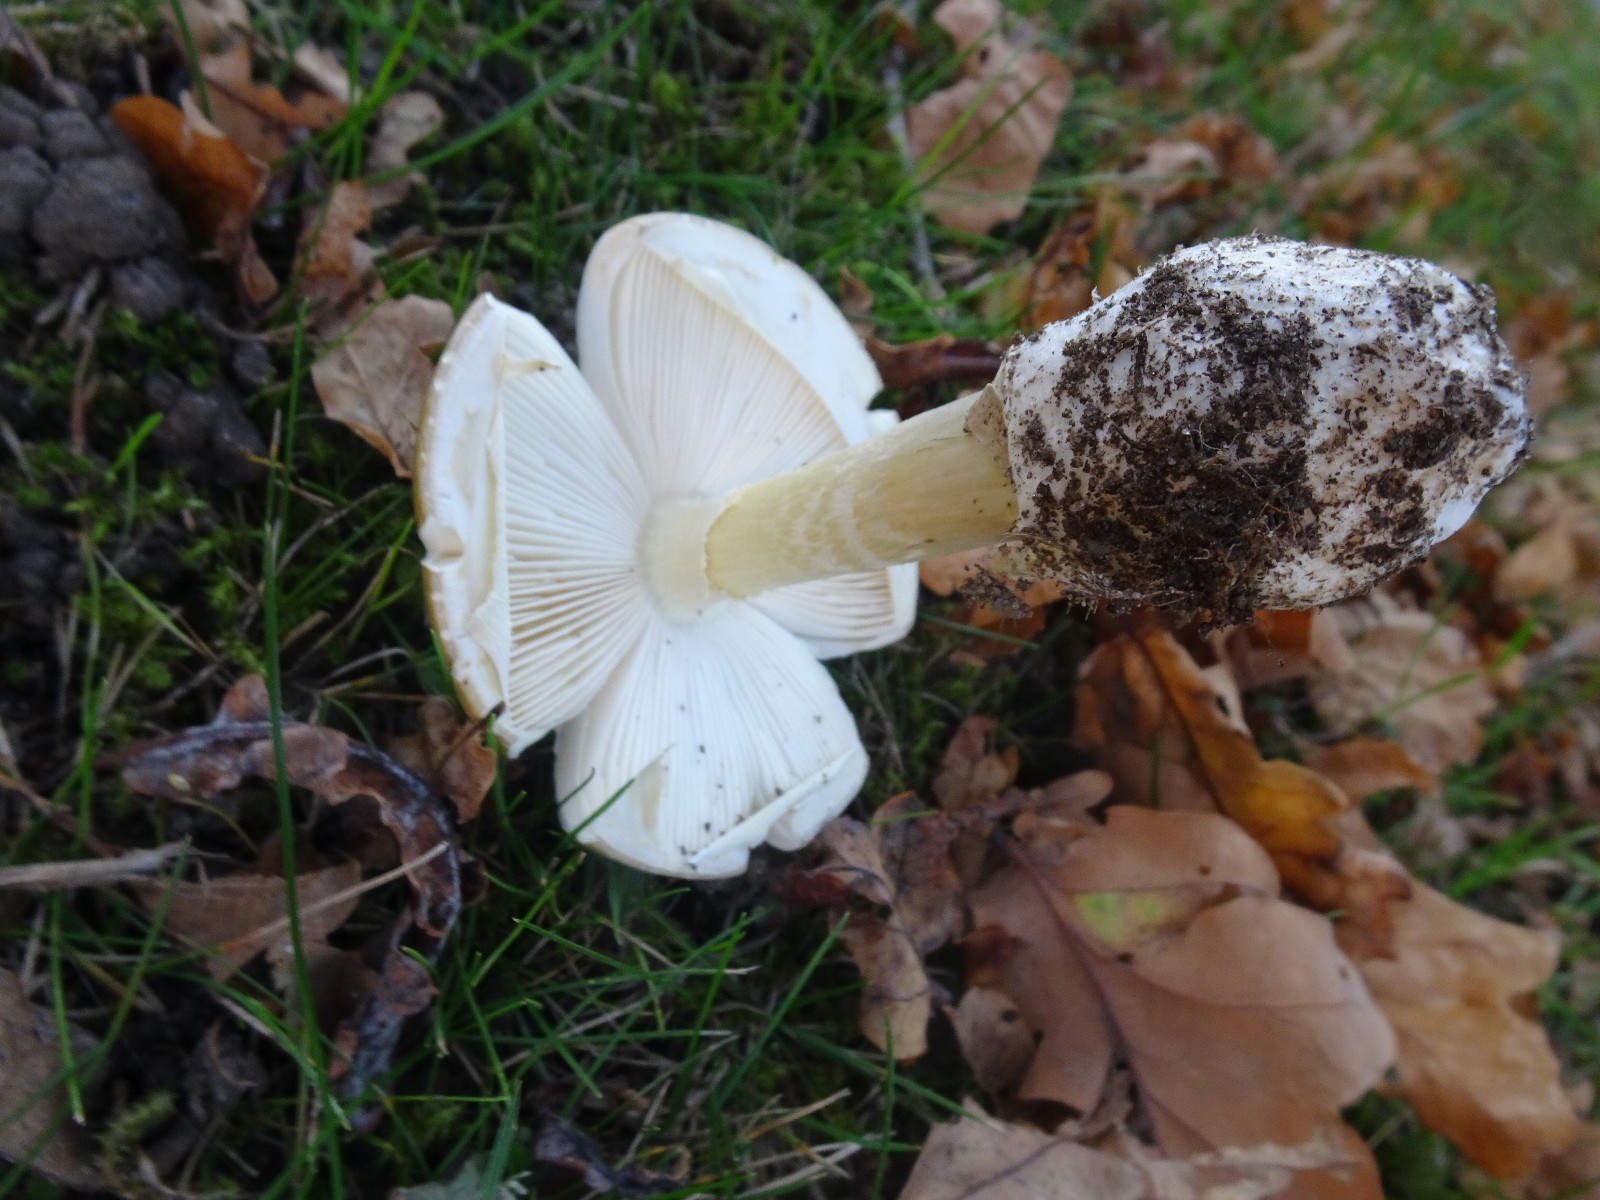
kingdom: Fungi
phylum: Basidiomycota
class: Agaricomycetes
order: Agaricales
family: Amanitaceae
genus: Amanita
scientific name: Amanita phalloides
